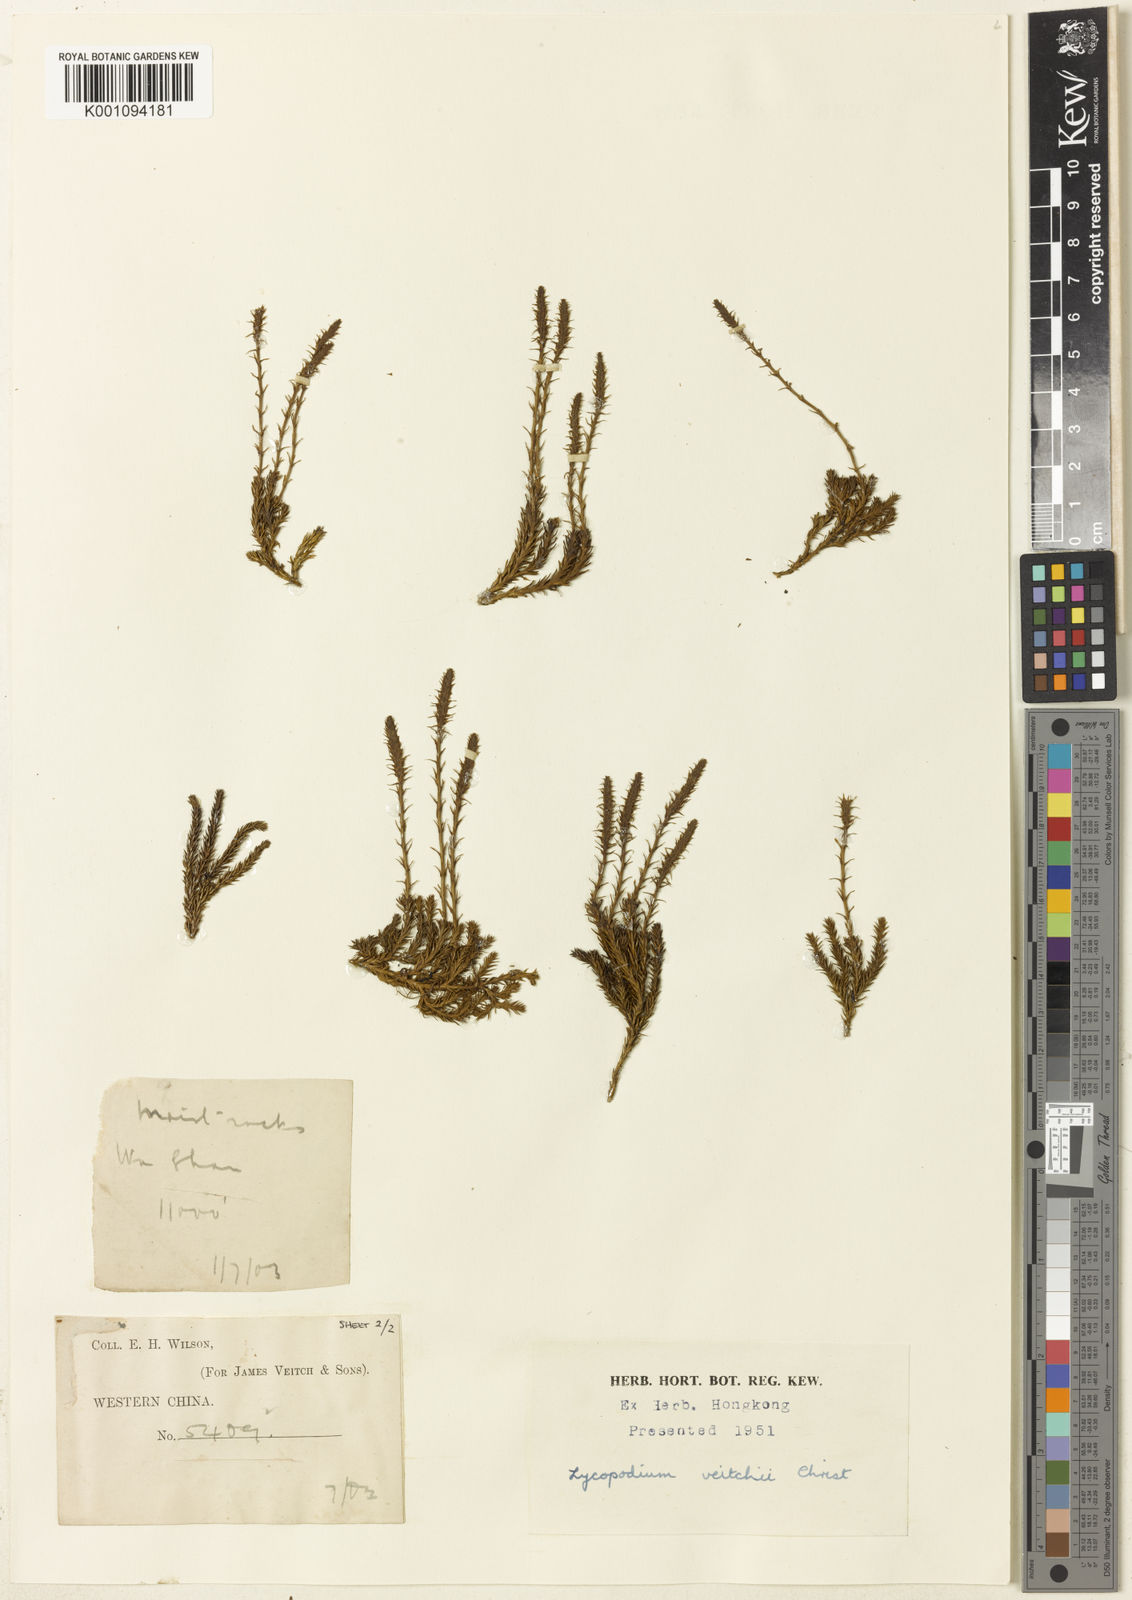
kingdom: Plantae
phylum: Tracheophyta
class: Lycopodiopsida
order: Lycopodiales
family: Lycopodiaceae
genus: Lycopodium
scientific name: Lycopodium
